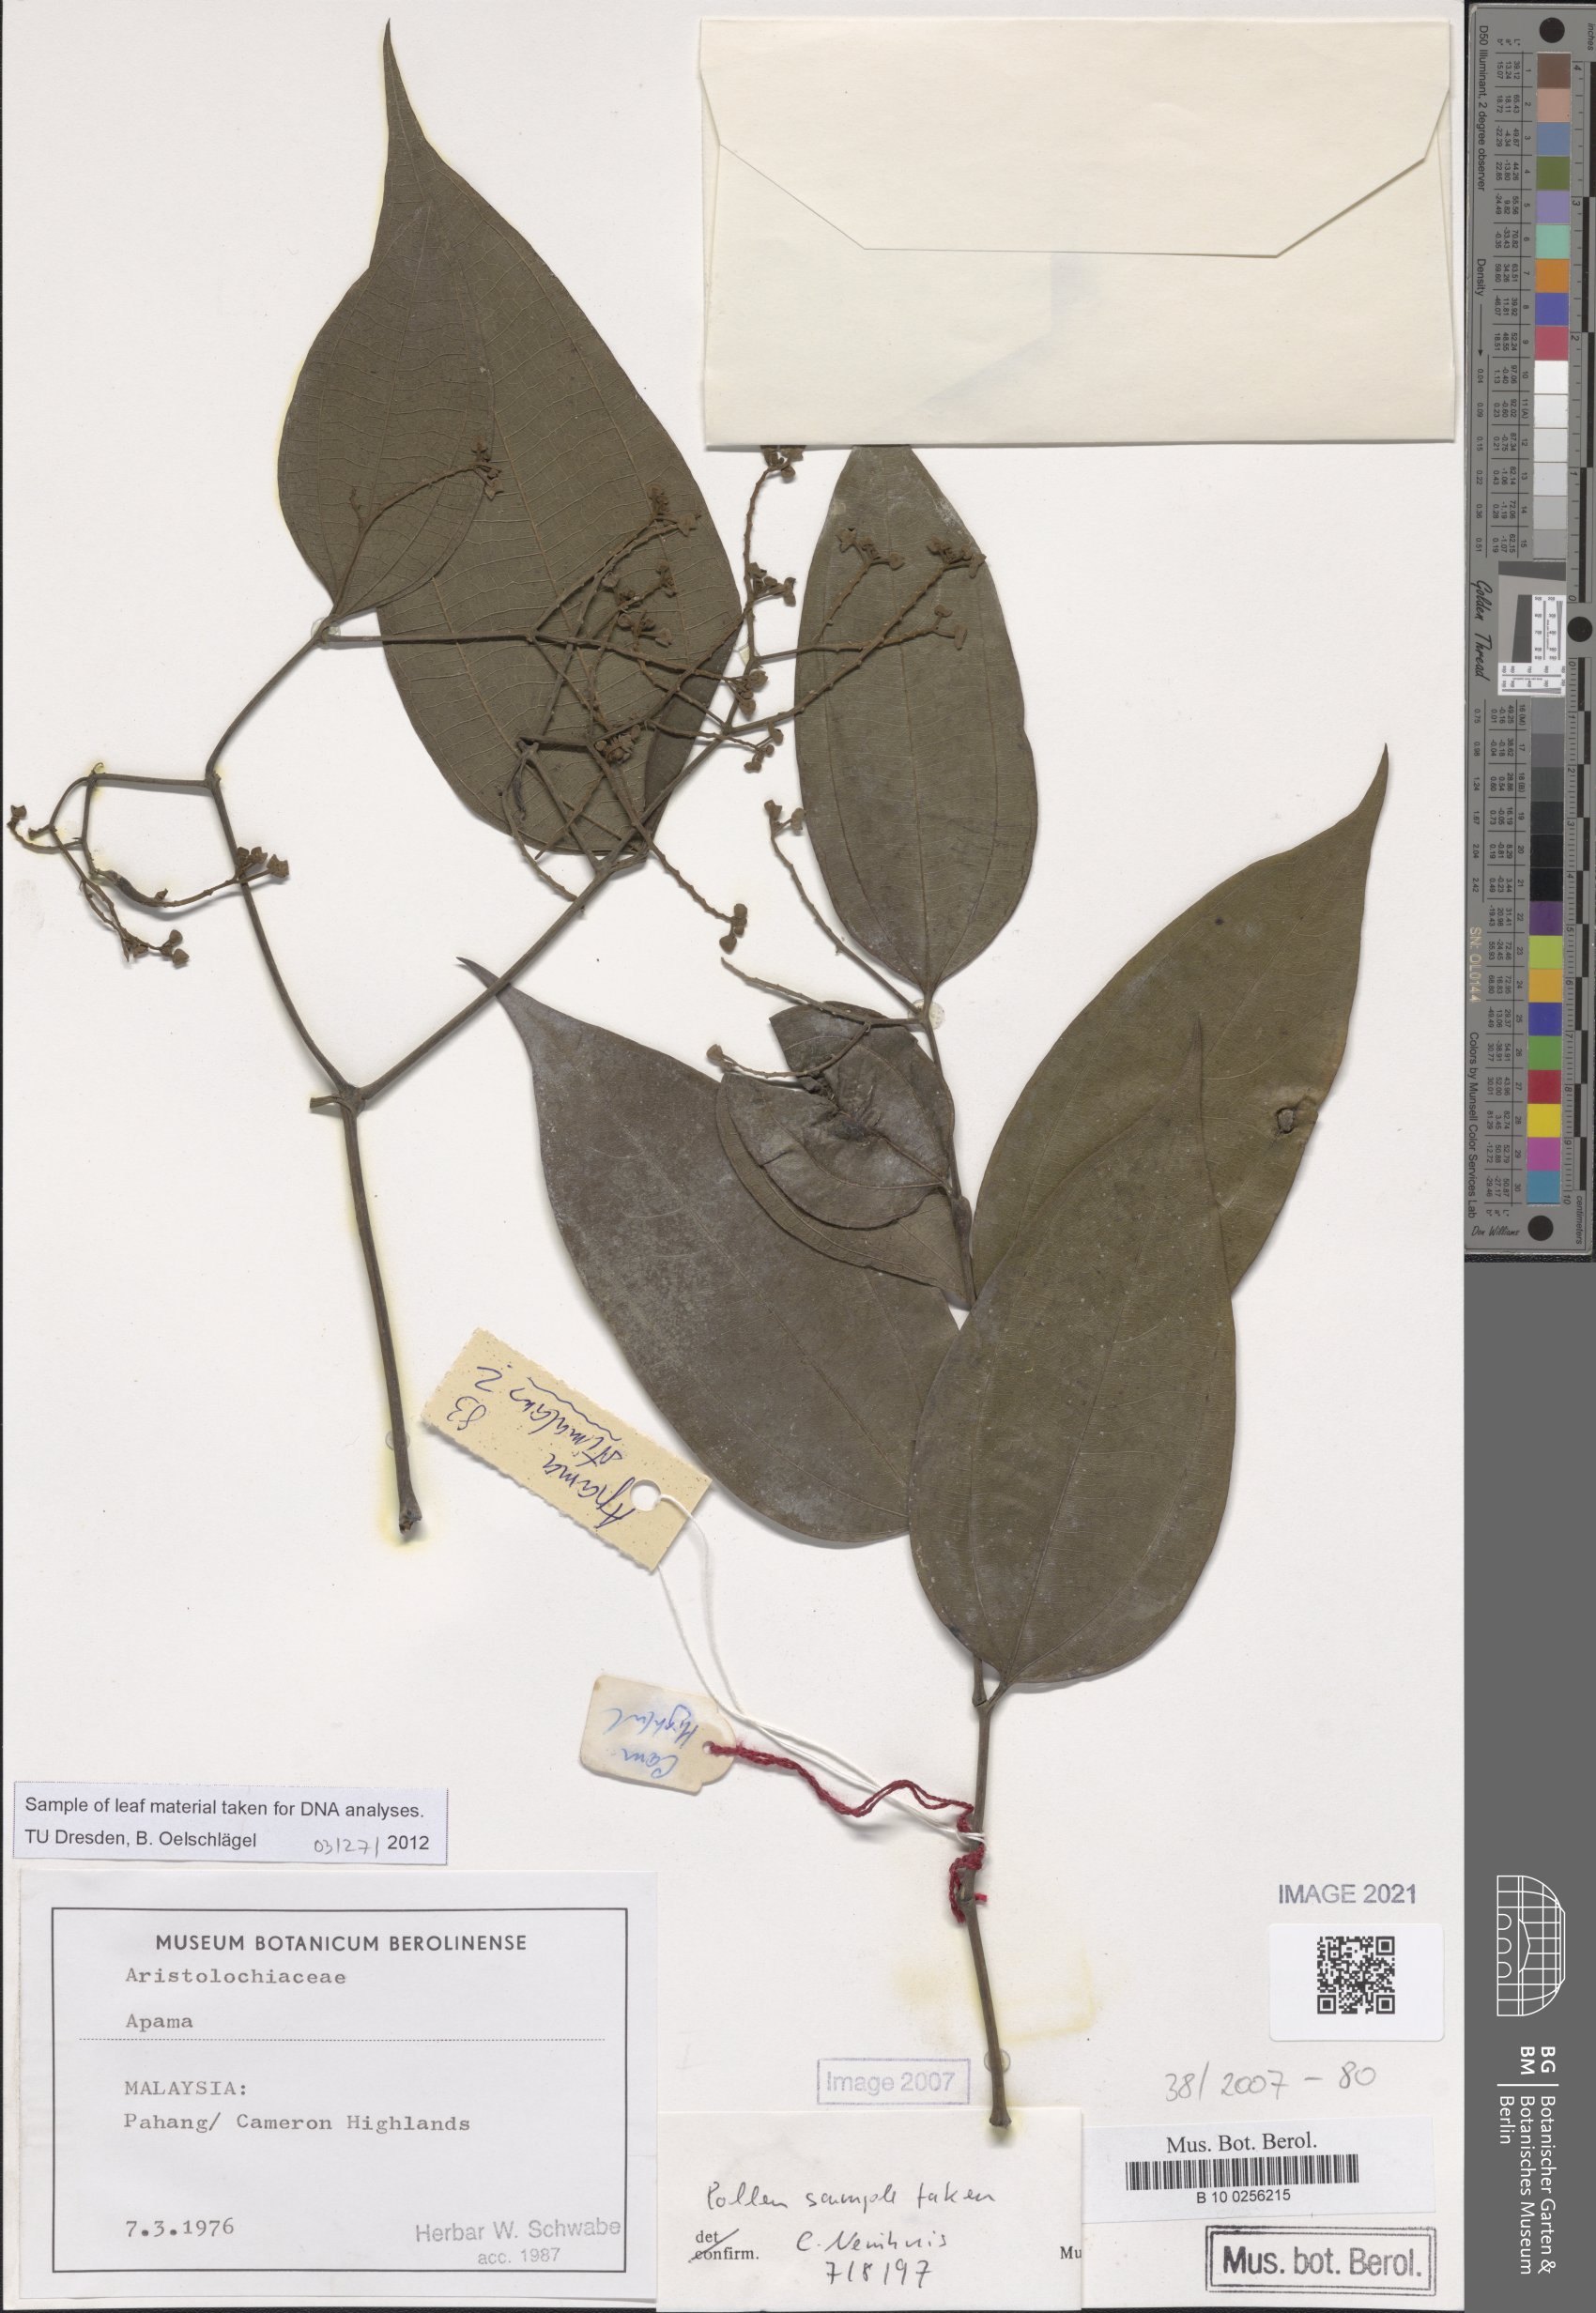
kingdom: Plantae
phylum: Tracheophyta
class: Magnoliopsida
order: Piperales
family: Aristolochiaceae
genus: Thottea
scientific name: Thottea
